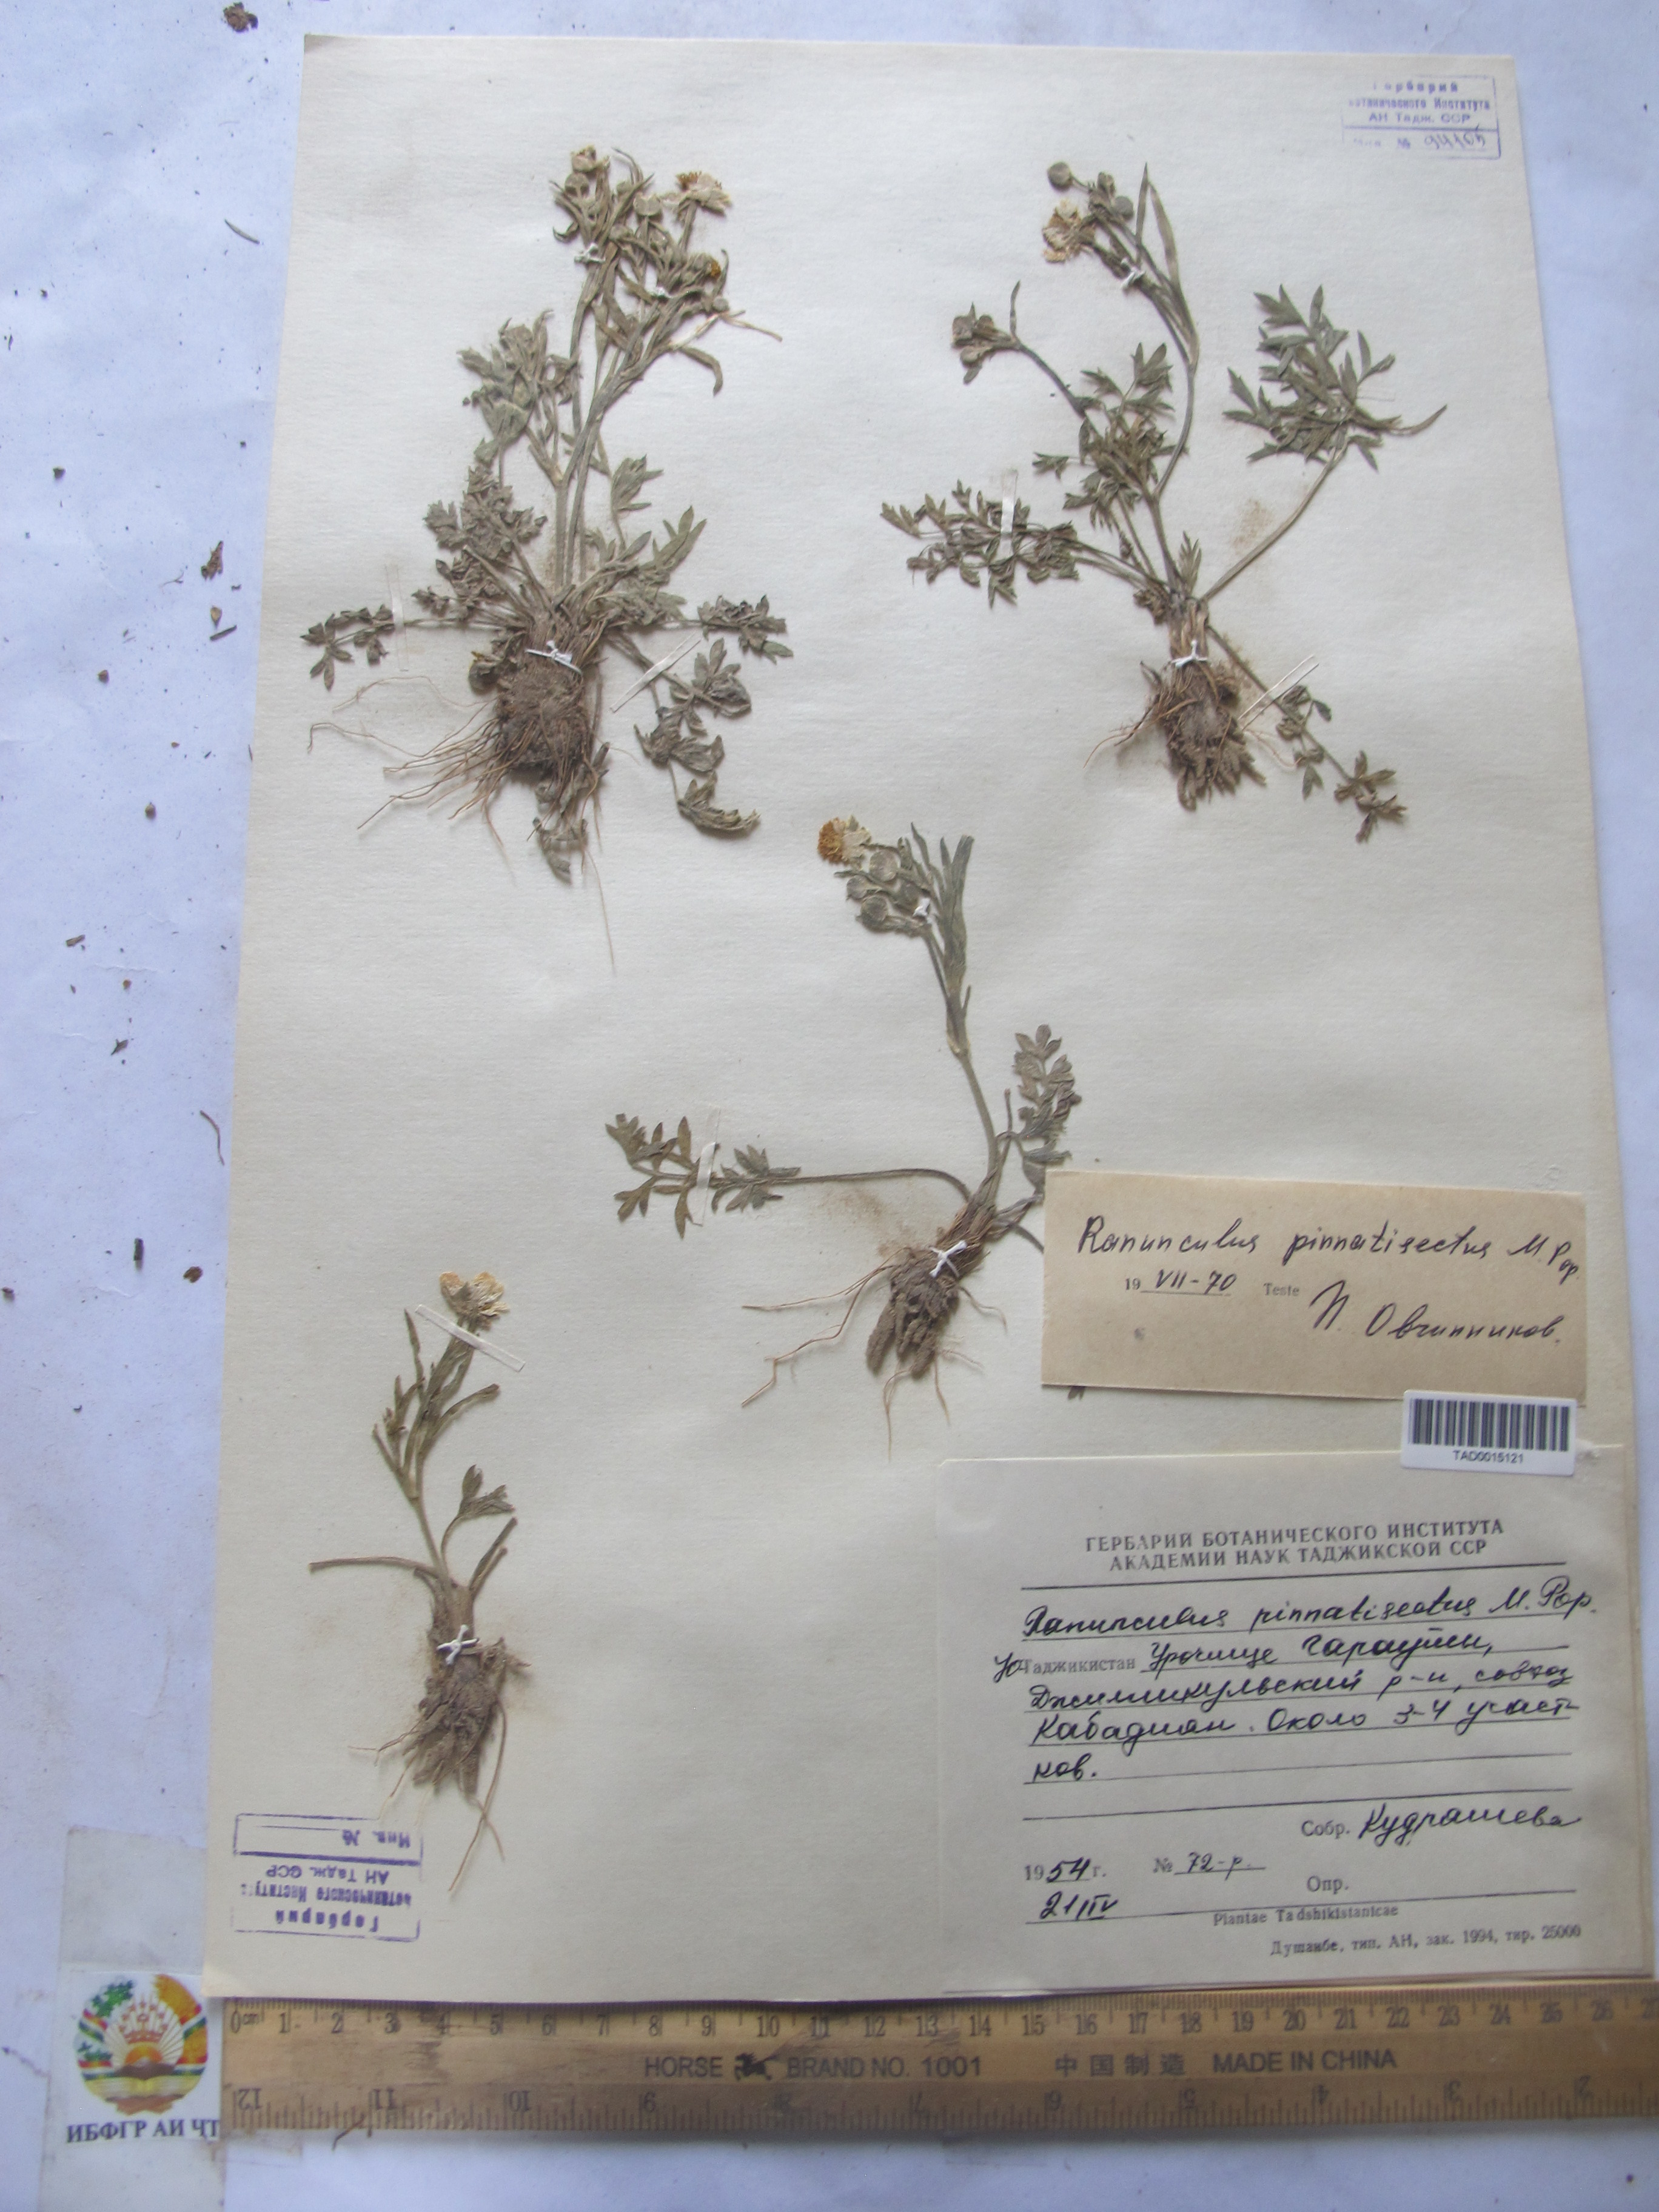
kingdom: Plantae
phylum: Tracheophyta
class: Magnoliopsida
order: Ranunculales
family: Ranunculaceae
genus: Ranunculus
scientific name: Ranunculus pinnatisectus
